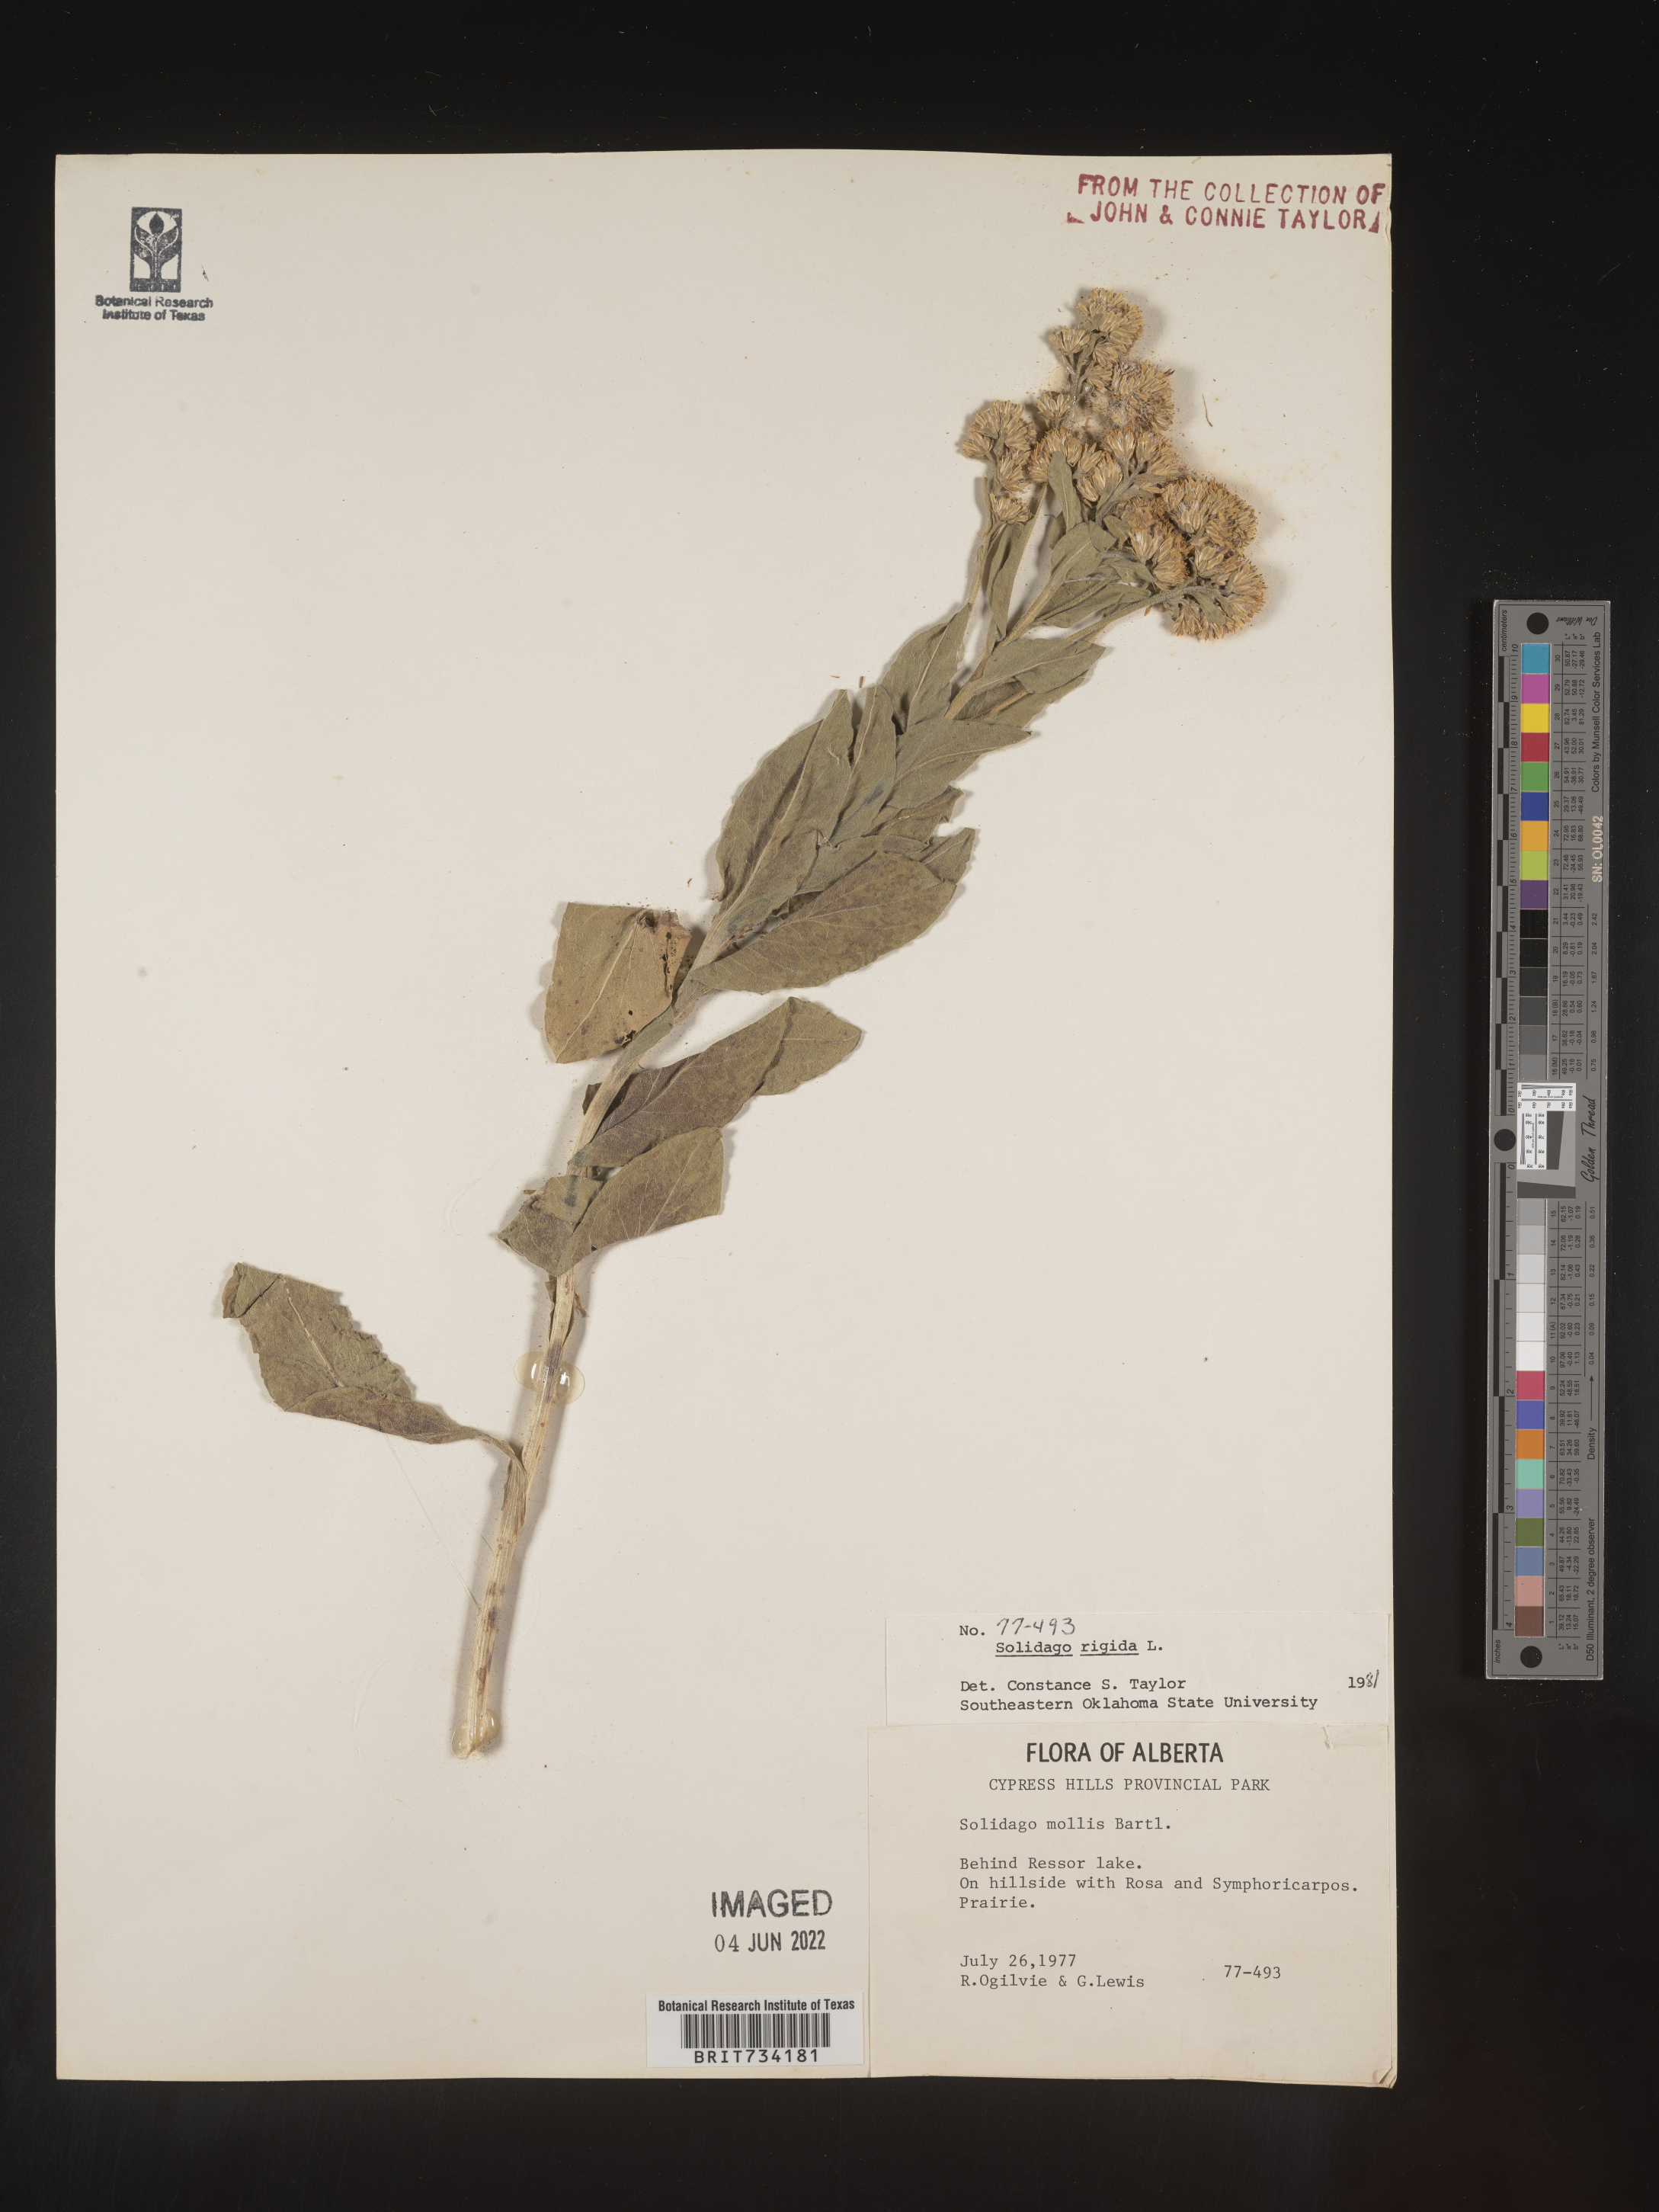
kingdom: Plantae
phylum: Tracheophyta
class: Magnoliopsida
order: Asterales
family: Asteraceae
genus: Solidago
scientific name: Solidago rigida
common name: Rigid goldenrod
